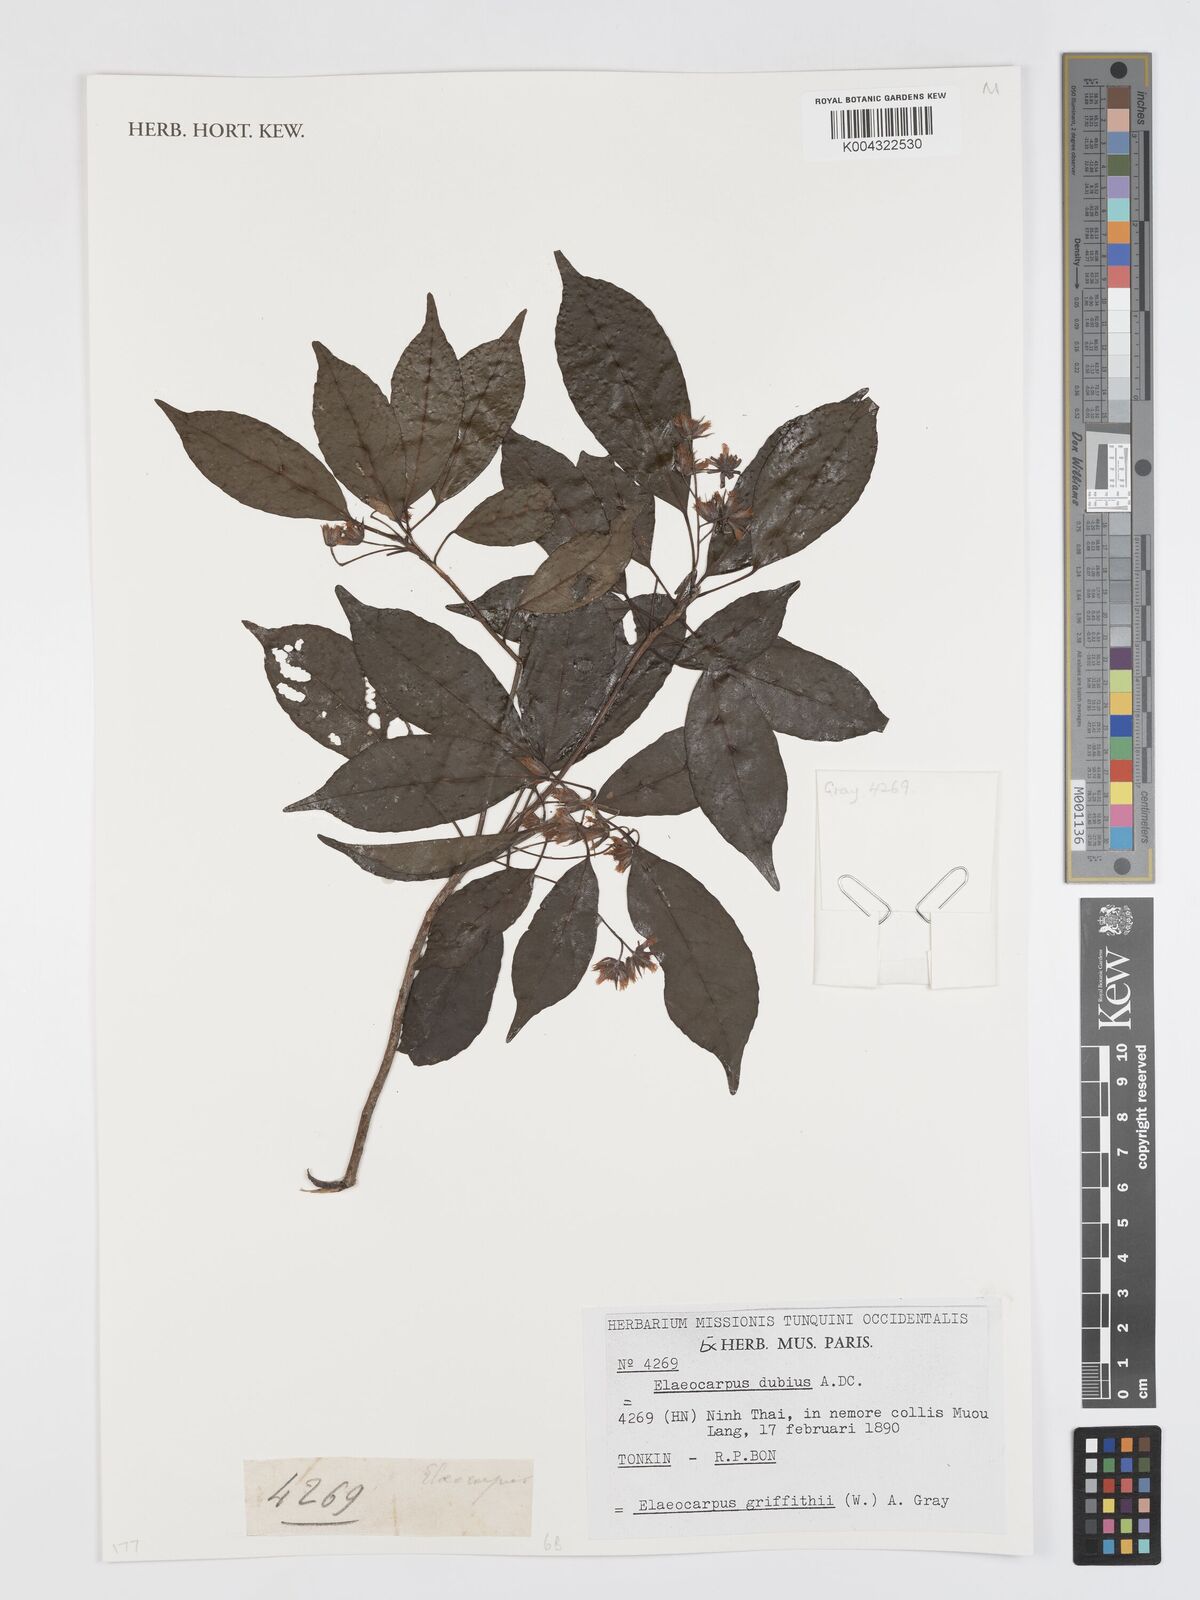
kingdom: Plantae
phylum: Tracheophyta
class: Magnoliopsida
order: Oxalidales
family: Elaeocarpaceae
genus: Elaeocarpus
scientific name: Elaeocarpus dubius
